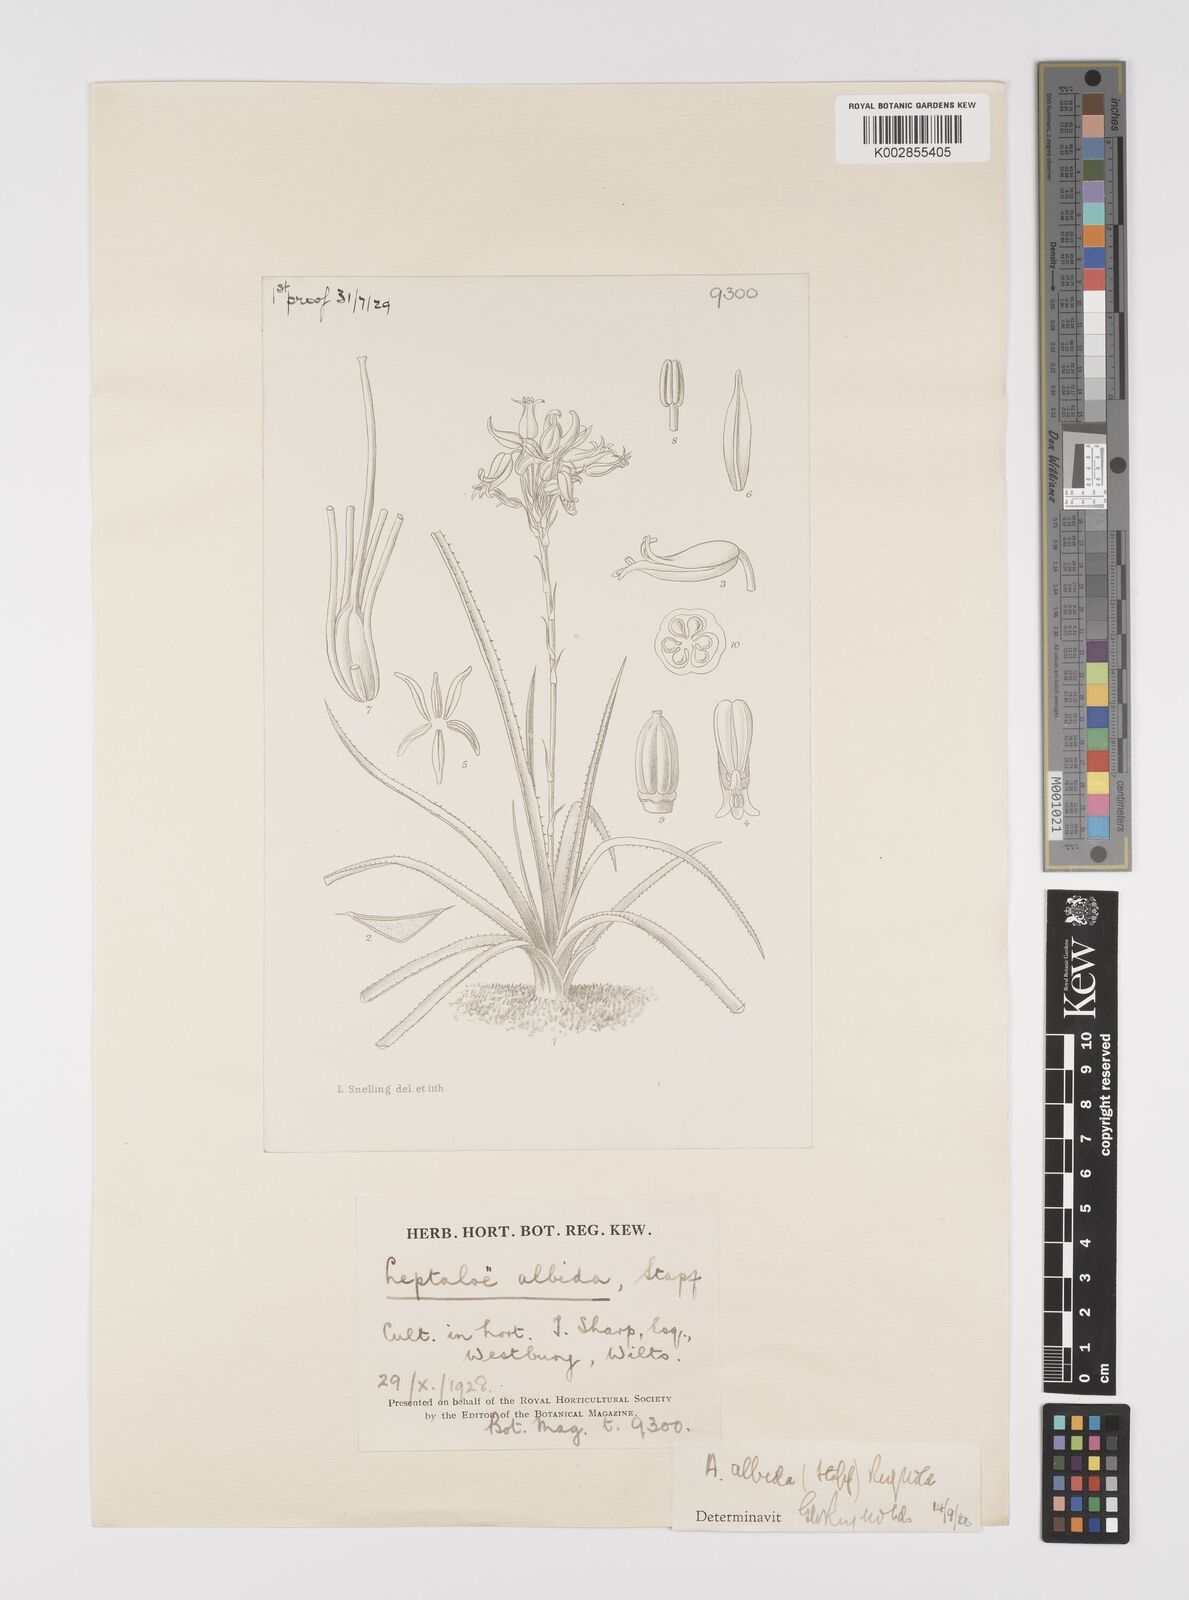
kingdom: Plantae
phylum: Tracheophyta
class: Liliopsida
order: Asparagales
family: Asphodelaceae
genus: Aloe
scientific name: Aloe albida
